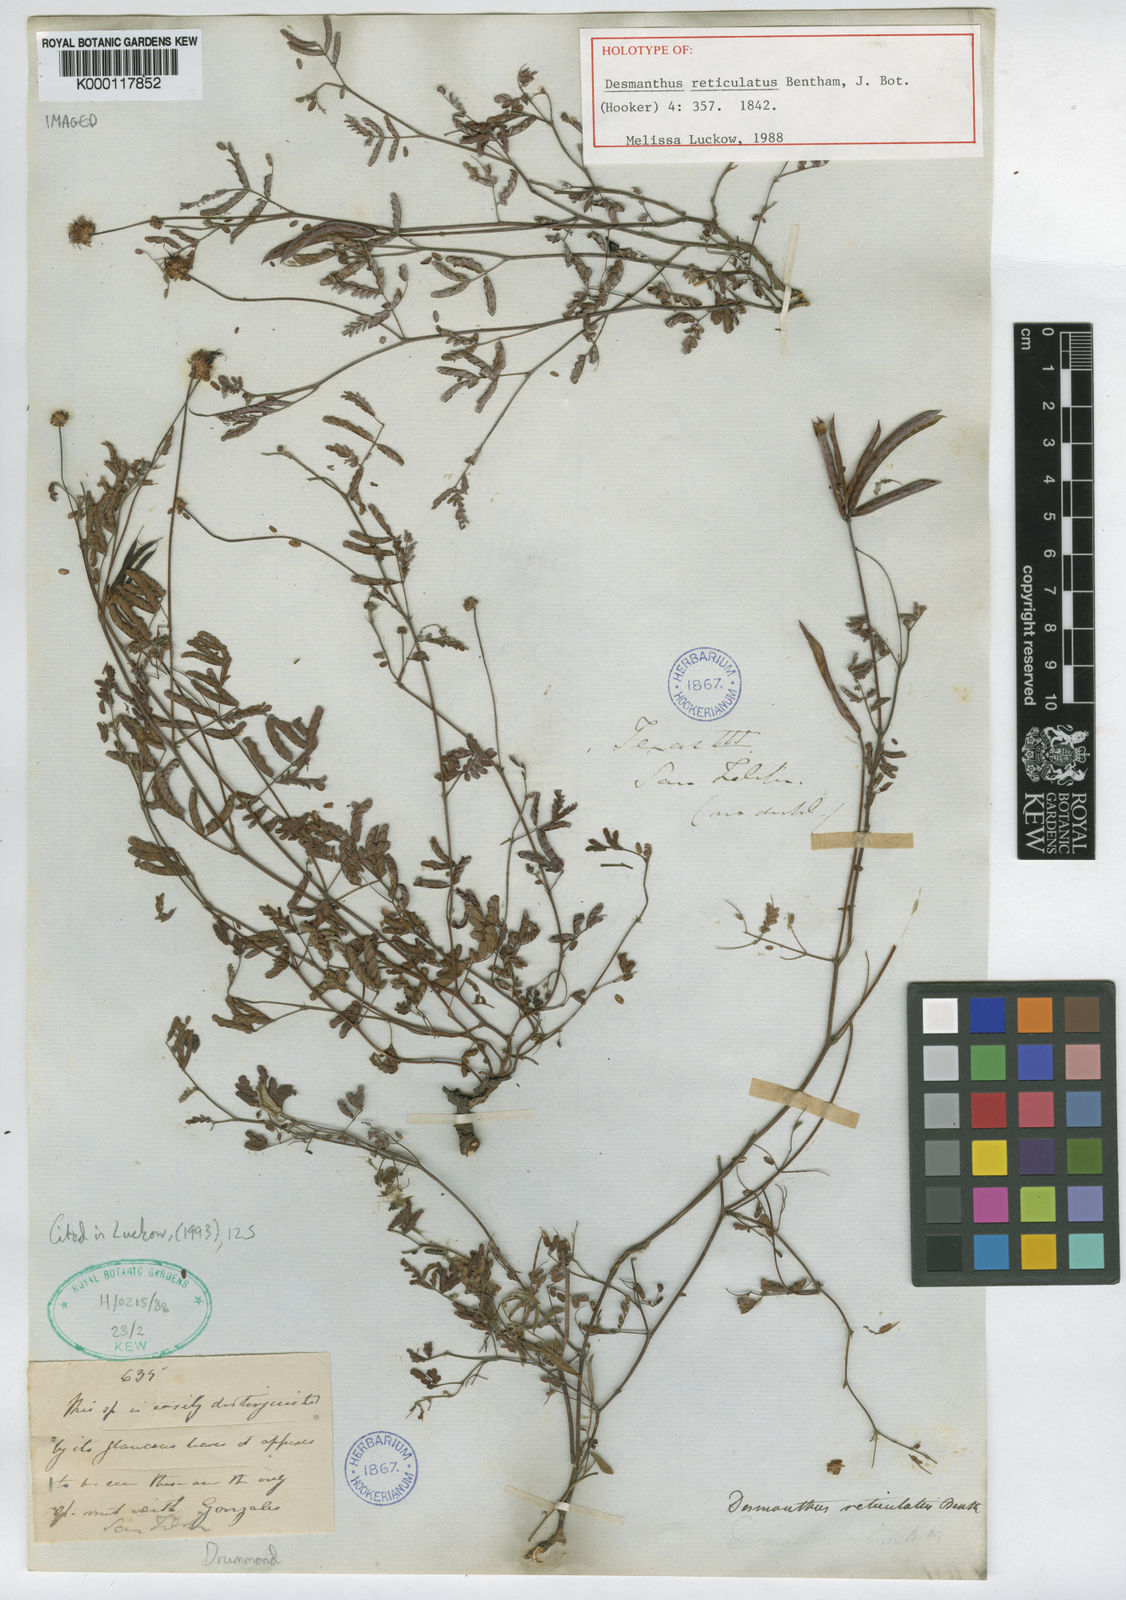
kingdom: Plantae
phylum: Tracheophyta
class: Magnoliopsida
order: Fabales
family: Fabaceae
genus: Desmanthus
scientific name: Desmanthus reticulatus
